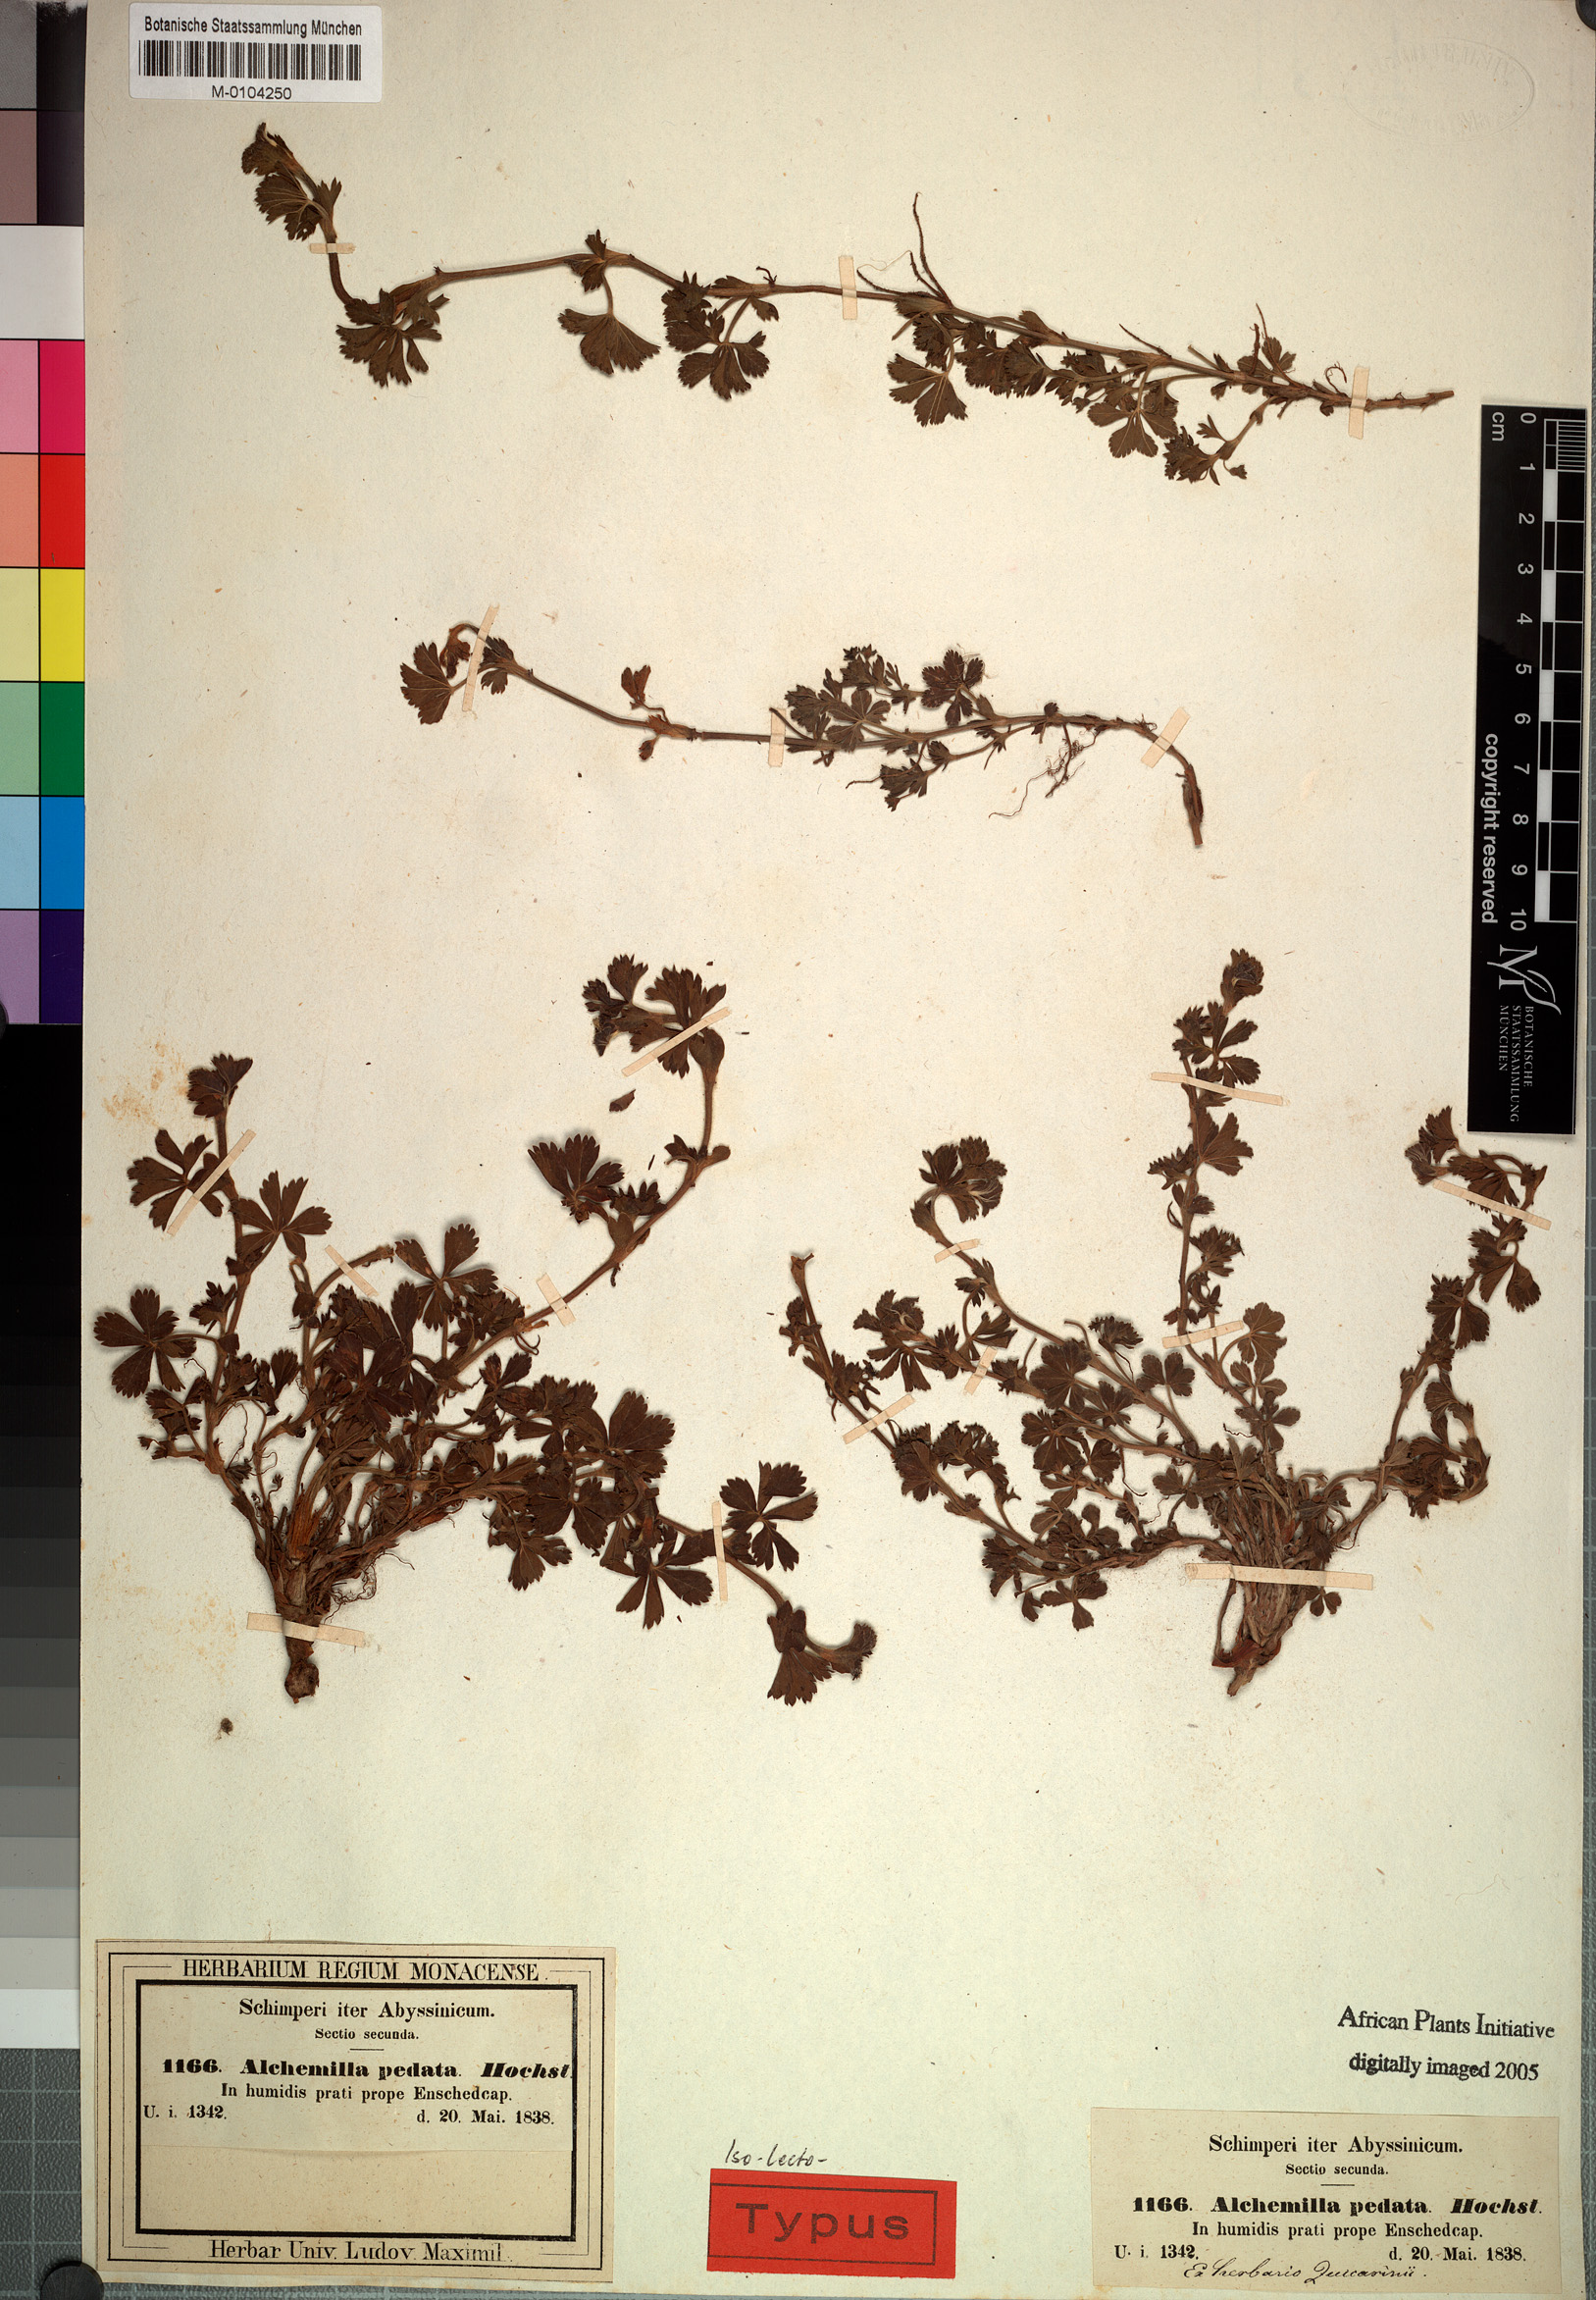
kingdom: Plantae
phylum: Tracheophyta
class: Magnoliopsida
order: Rosales
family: Rosaceae
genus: Alchemilla
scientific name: Alchemilla pedata
